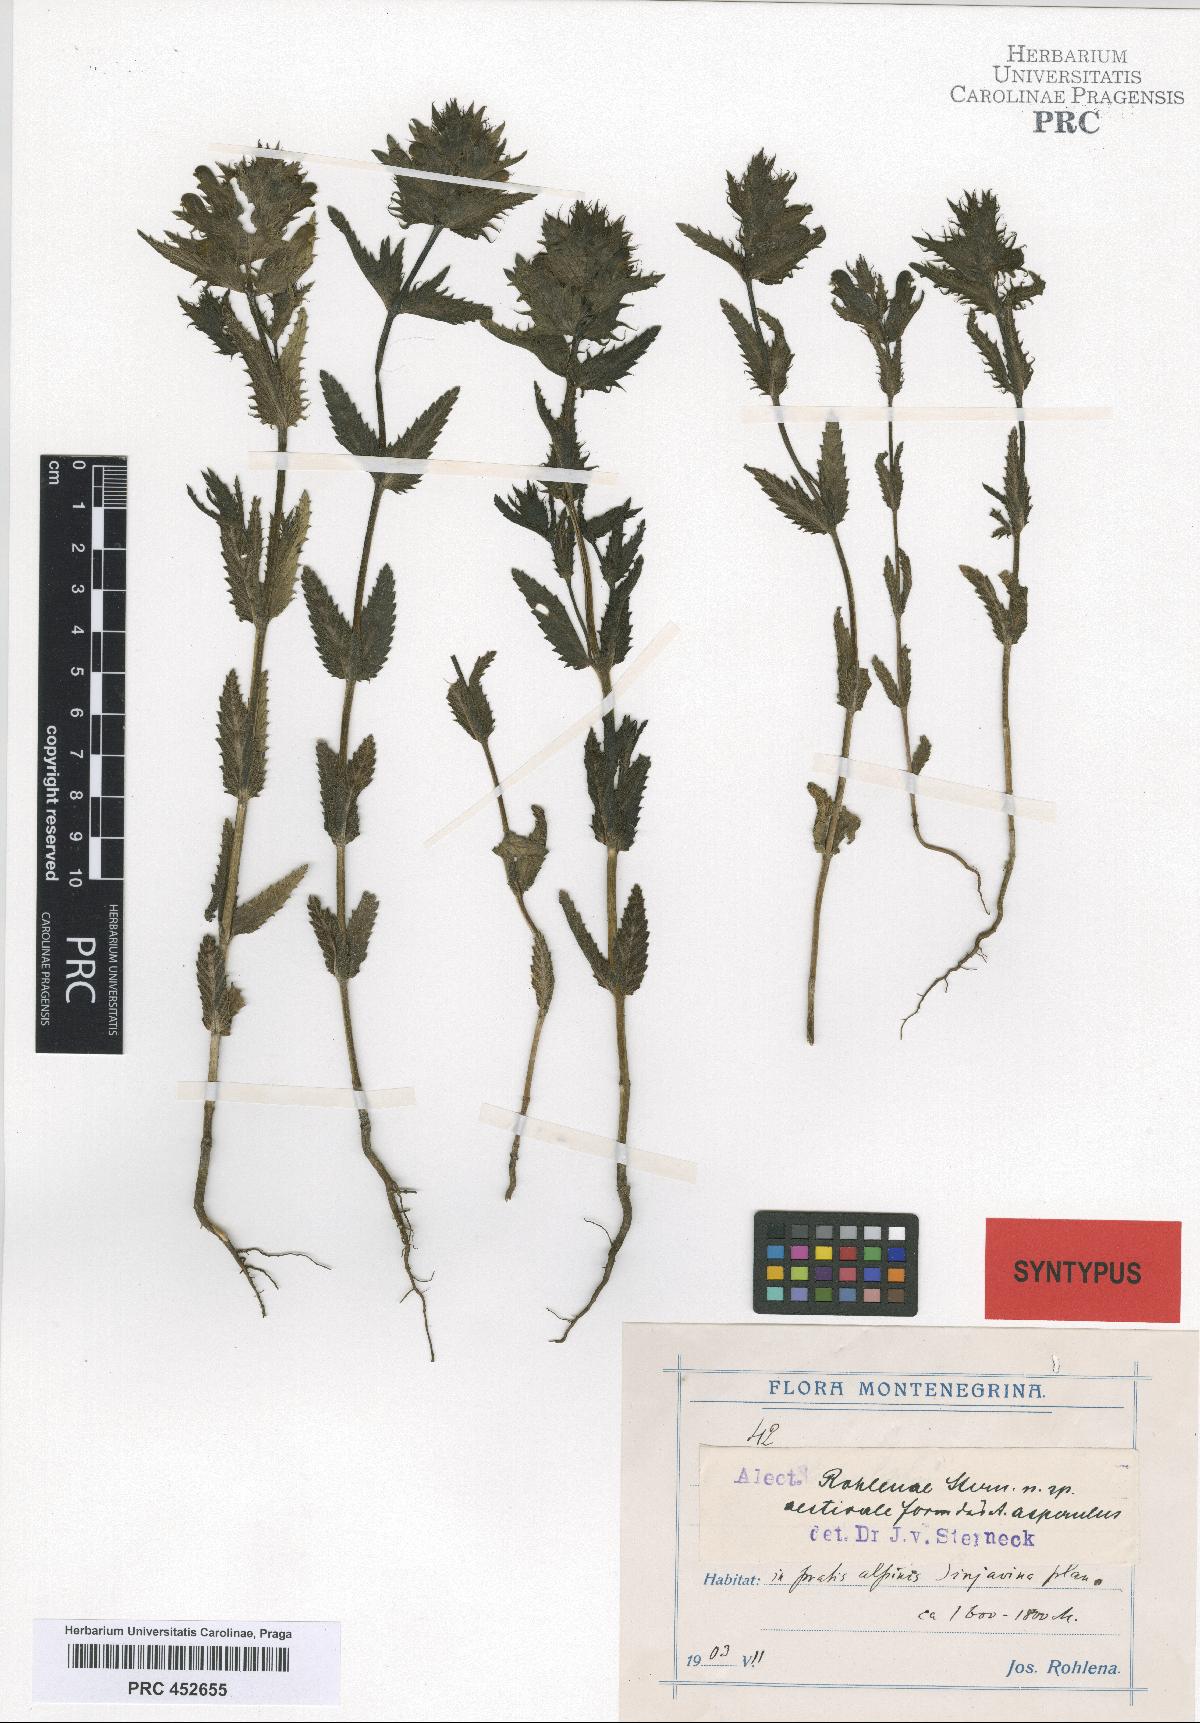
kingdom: Plantae
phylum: Tracheophyta
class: Magnoliopsida
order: Lamiales
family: Scrophulariaceae
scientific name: Scrophulariaceae
